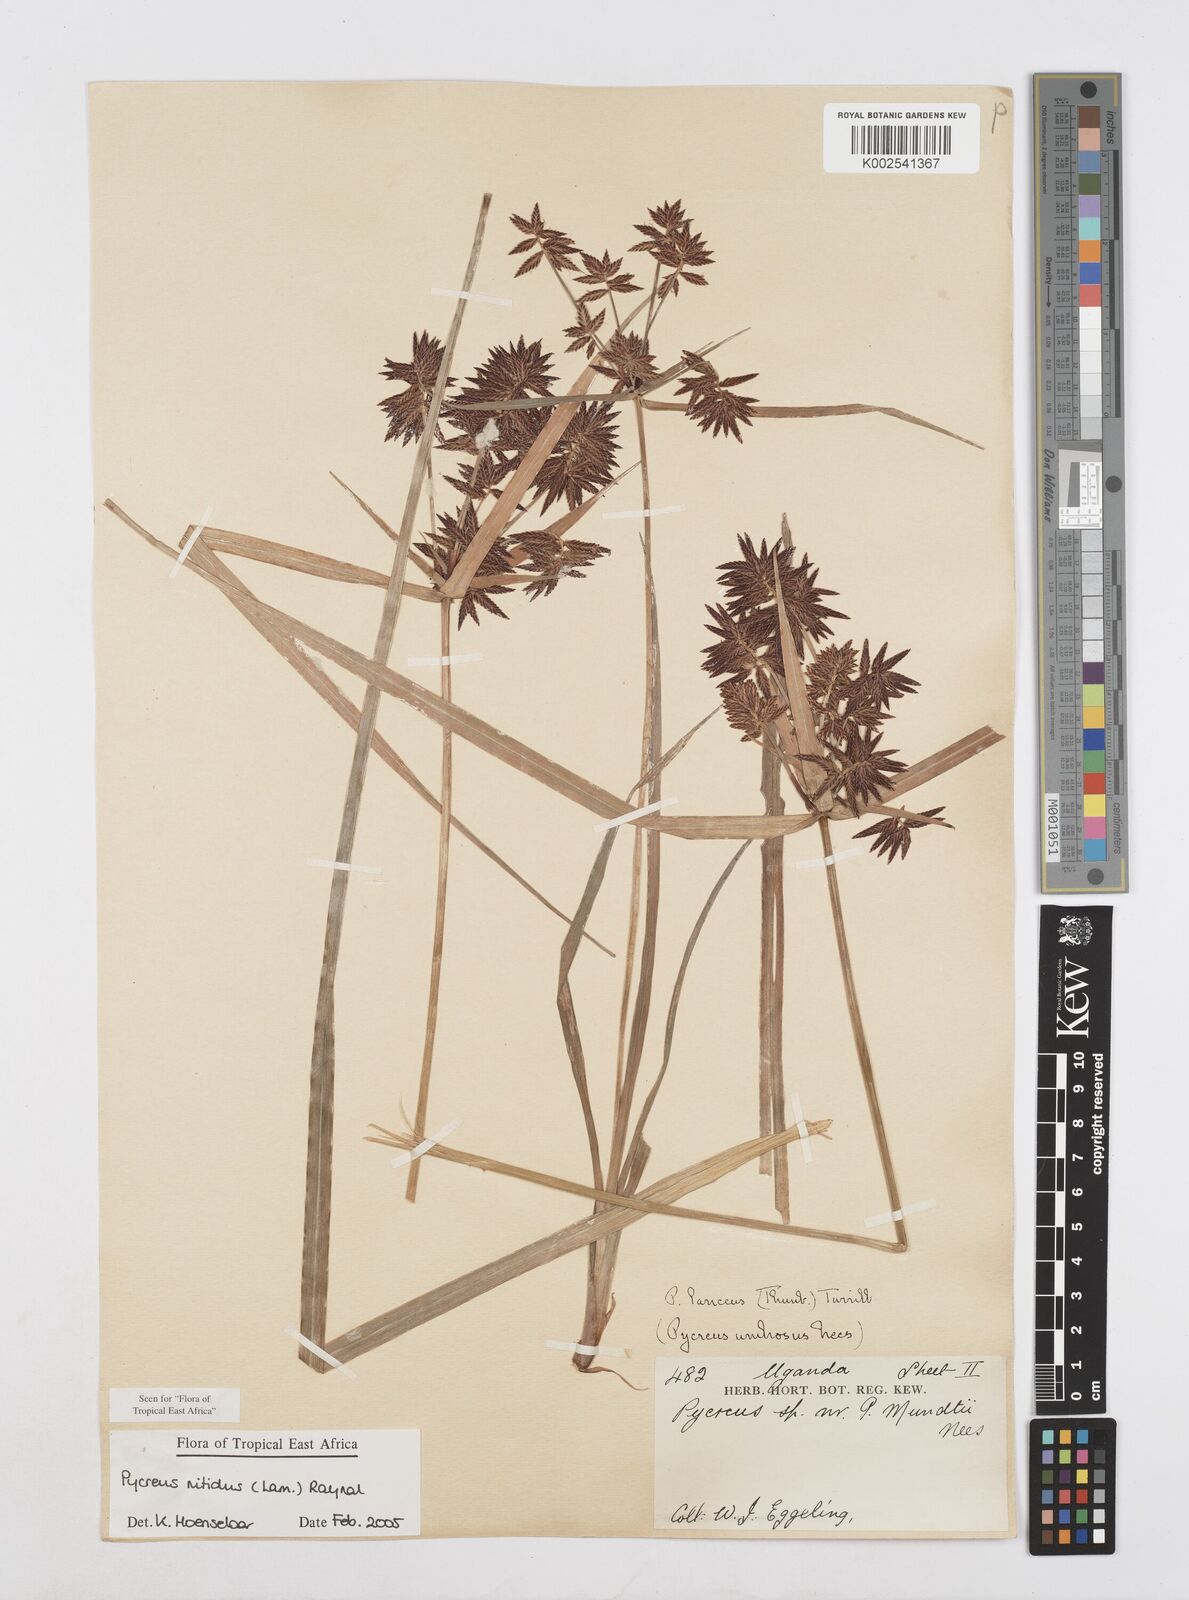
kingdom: Plantae
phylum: Tracheophyta
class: Liliopsida
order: Poales
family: Cyperaceae
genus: Cyperus
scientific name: Cyperus nitidus
